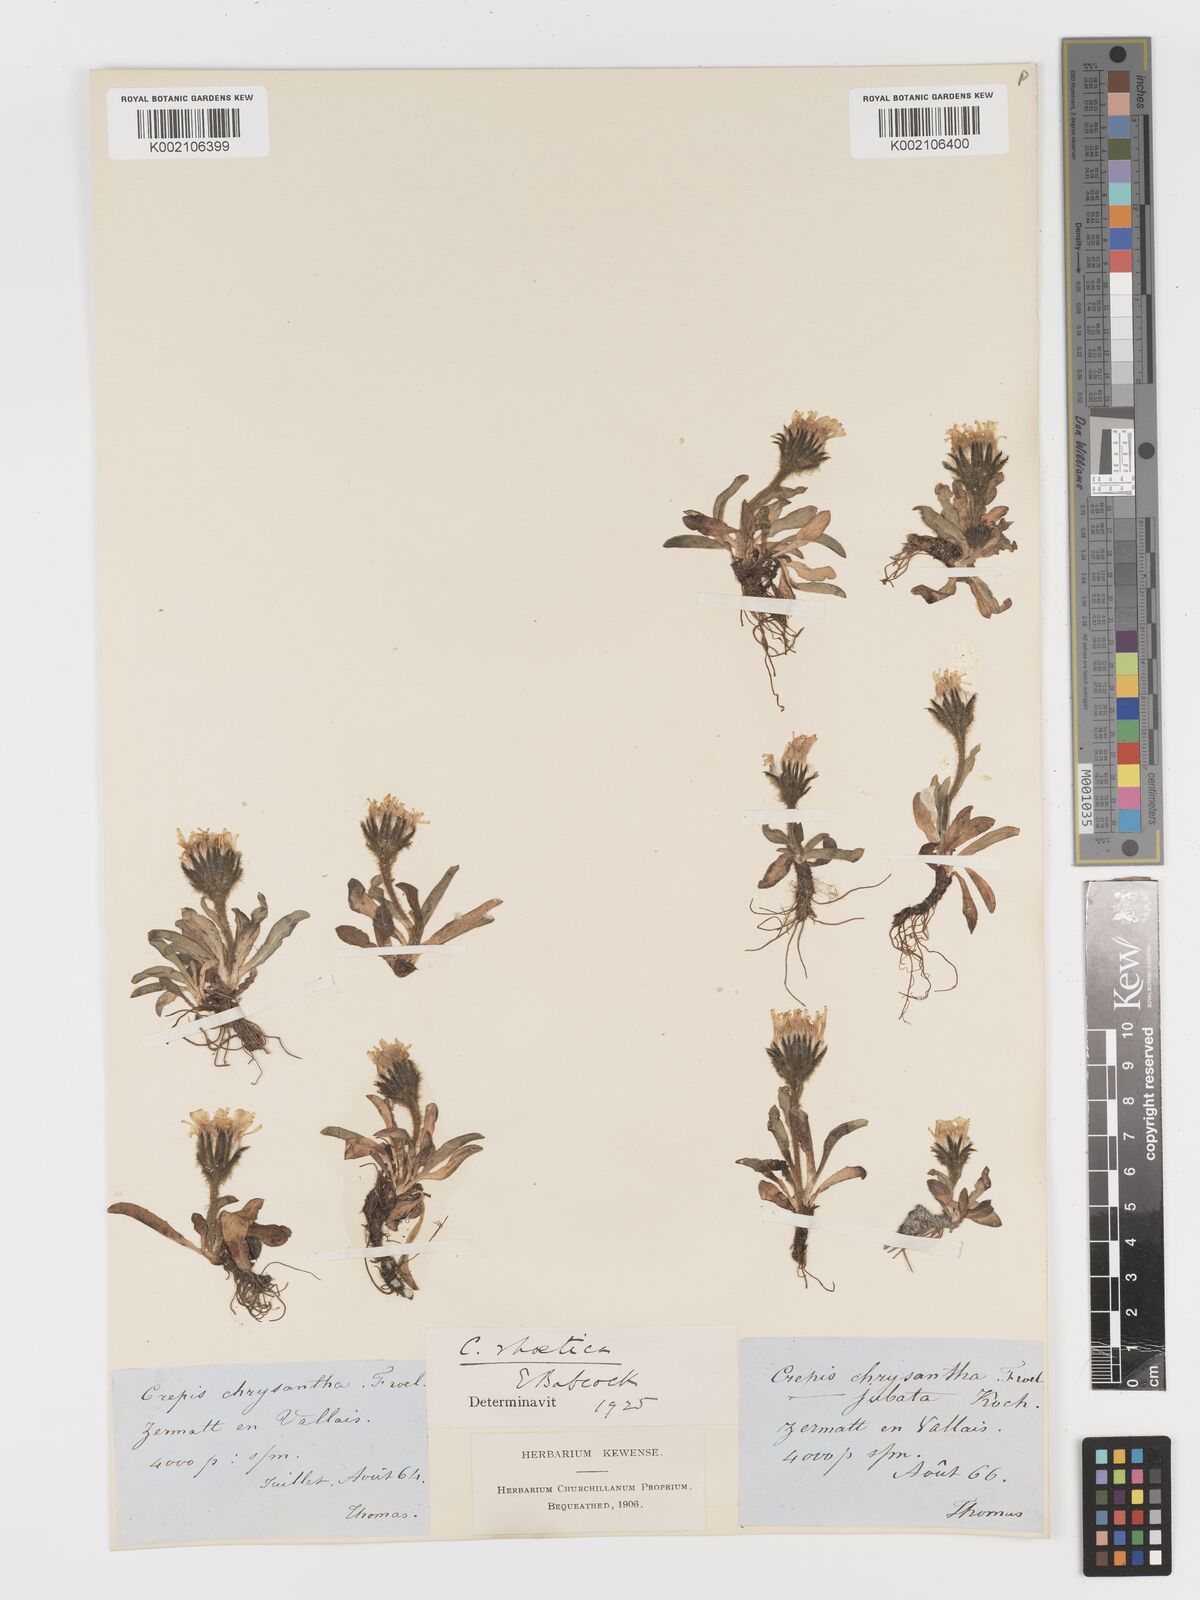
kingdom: Plantae
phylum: Tracheophyta
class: Magnoliopsida
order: Asterales
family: Asteraceae
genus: Crepis
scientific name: Crepis rhaetica
